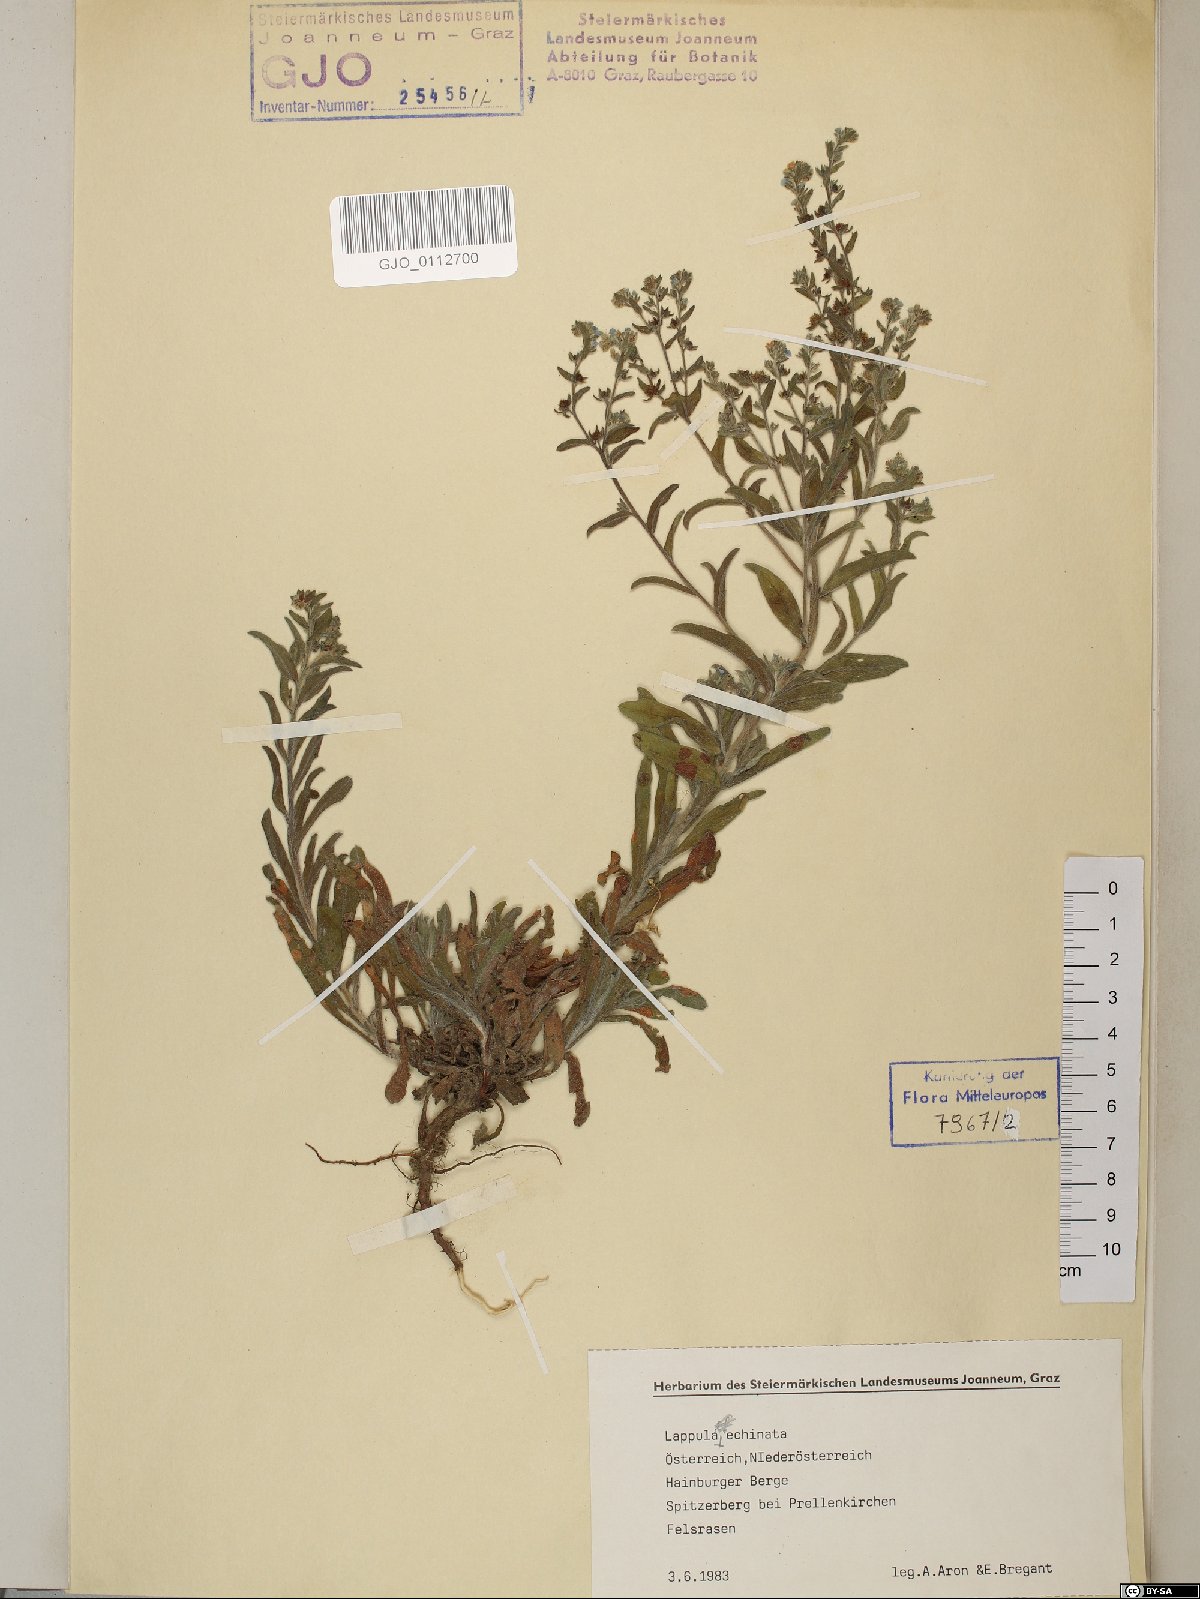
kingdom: Plantae
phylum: Tracheophyta
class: Magnoliopsida
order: Boraginales
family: Boraginaceae
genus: Lappula
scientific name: Lappula squarrosa
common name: European stickseed
